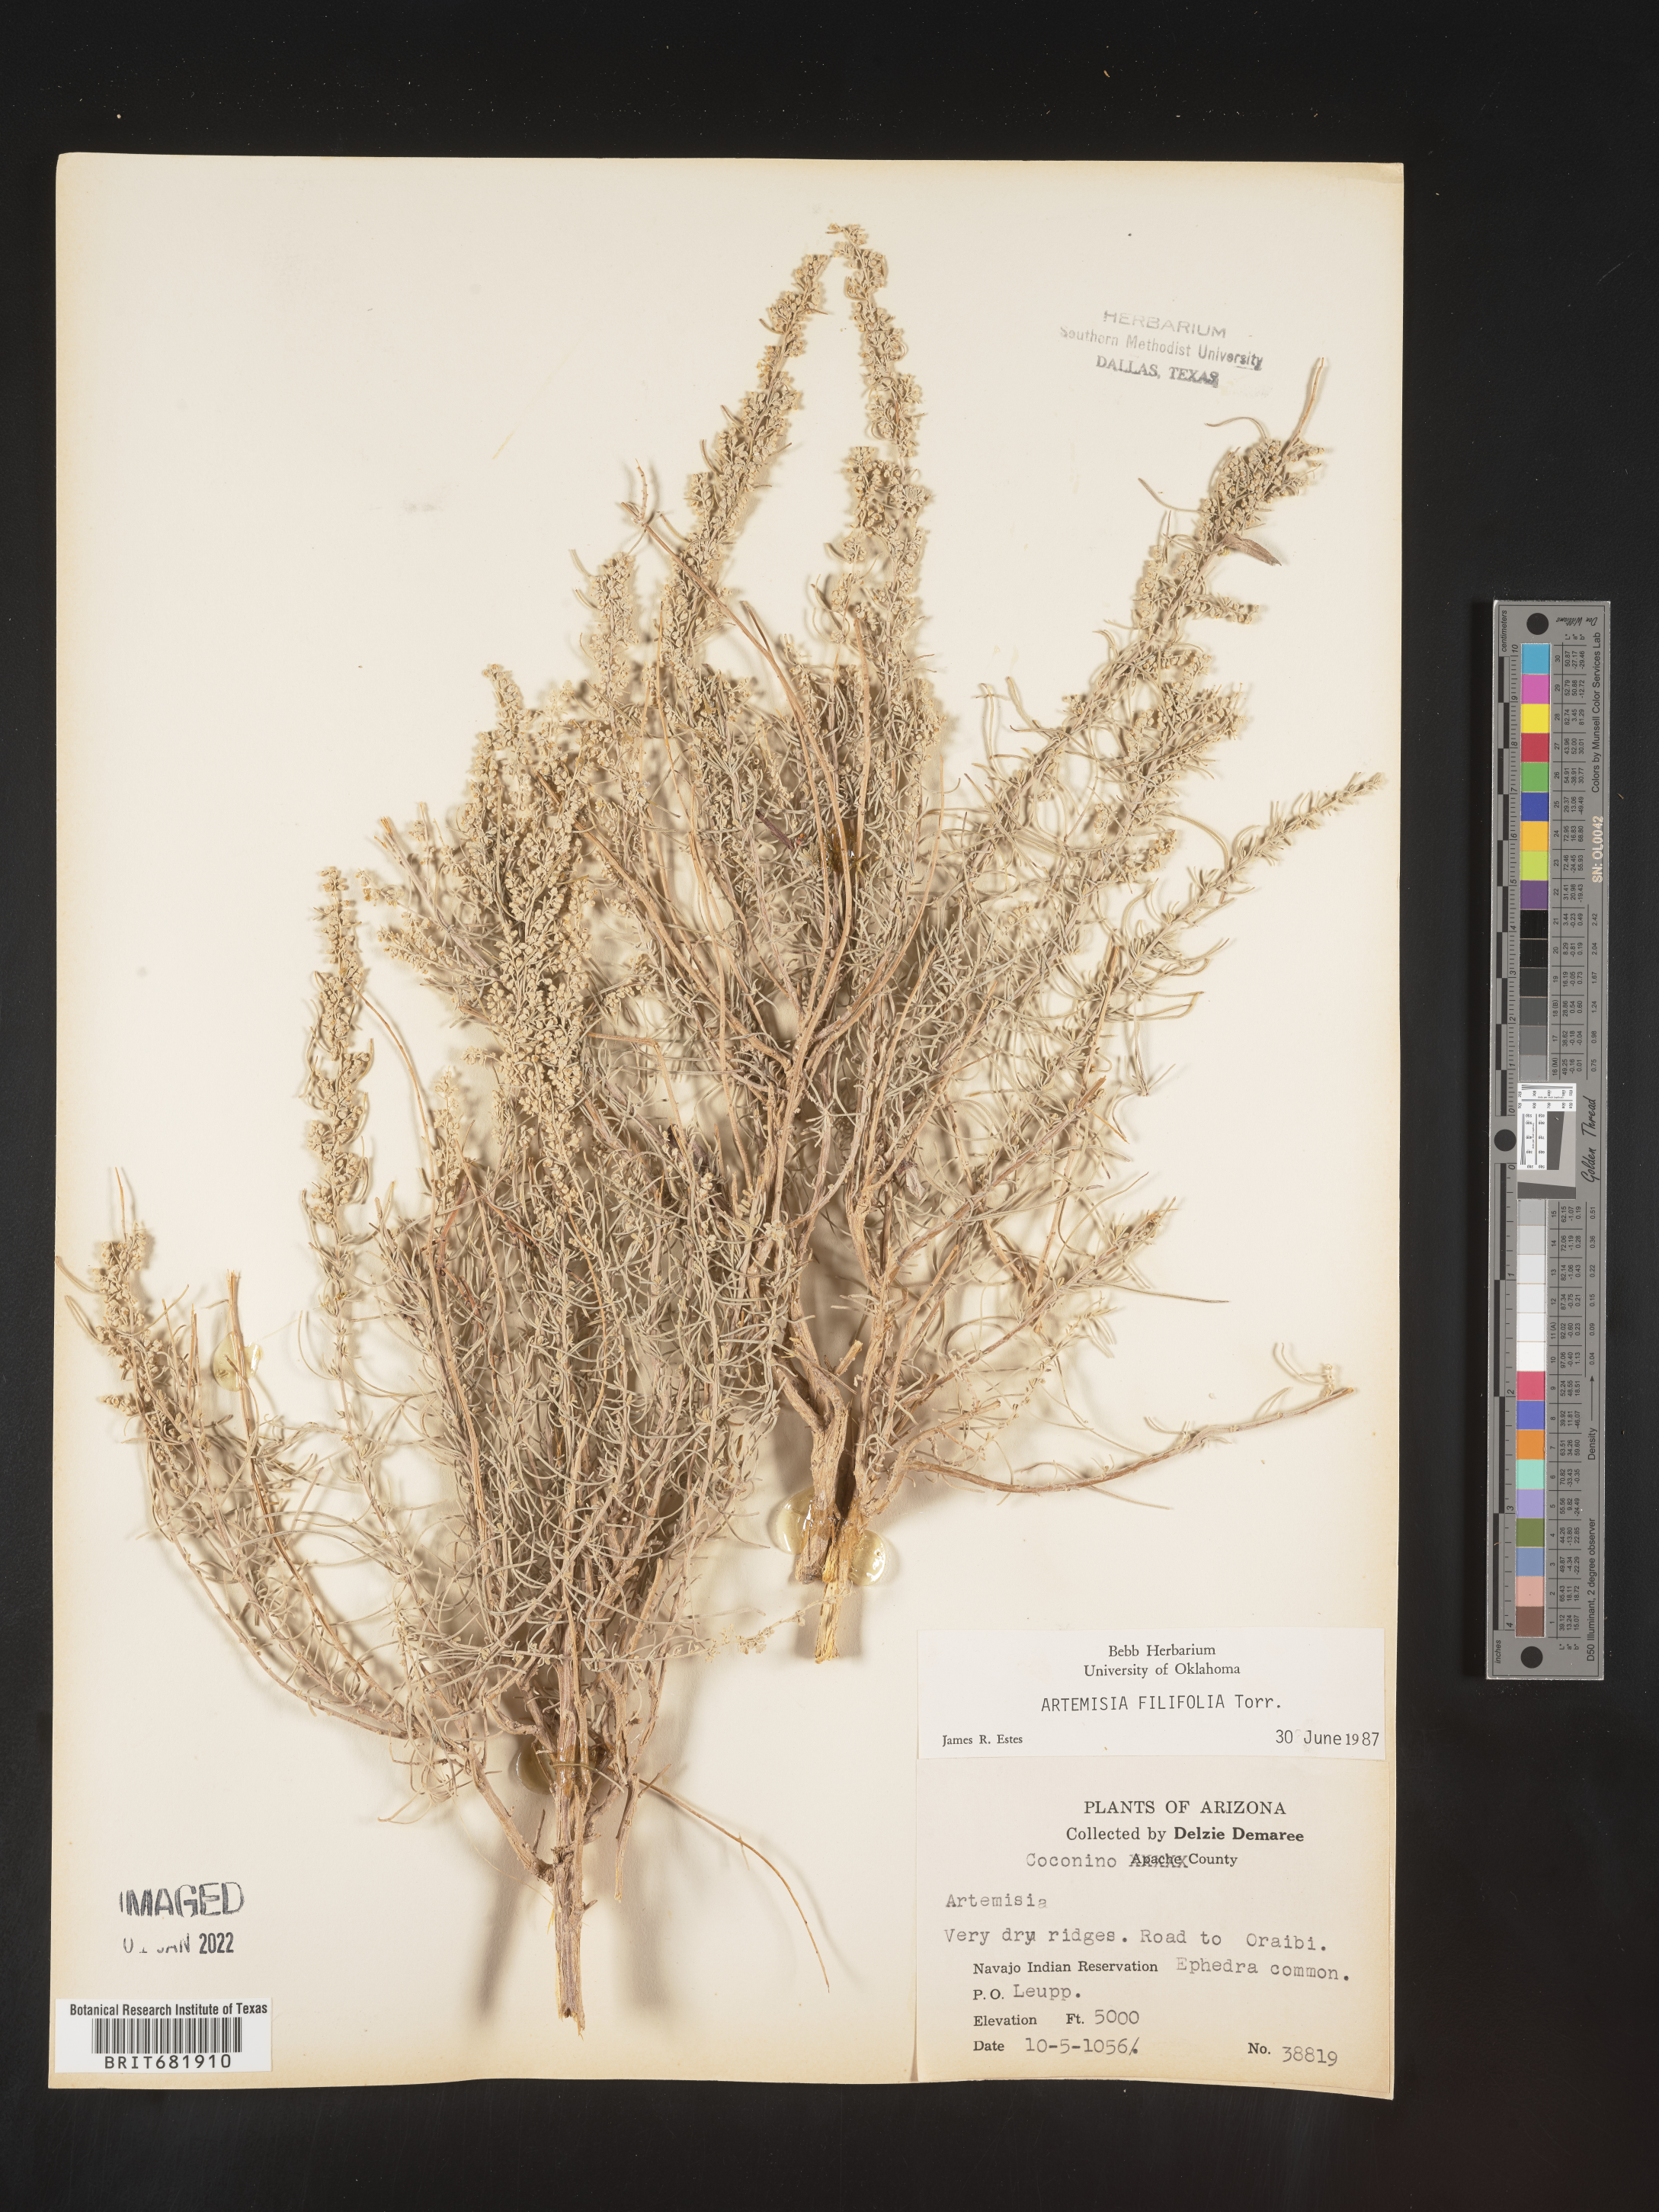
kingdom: Plantae
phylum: Tracheophyta
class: Magnoliopsida
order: Asterales
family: Asteraceae
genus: Artemisia
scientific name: Artemisia filifolia
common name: Sand-sage
